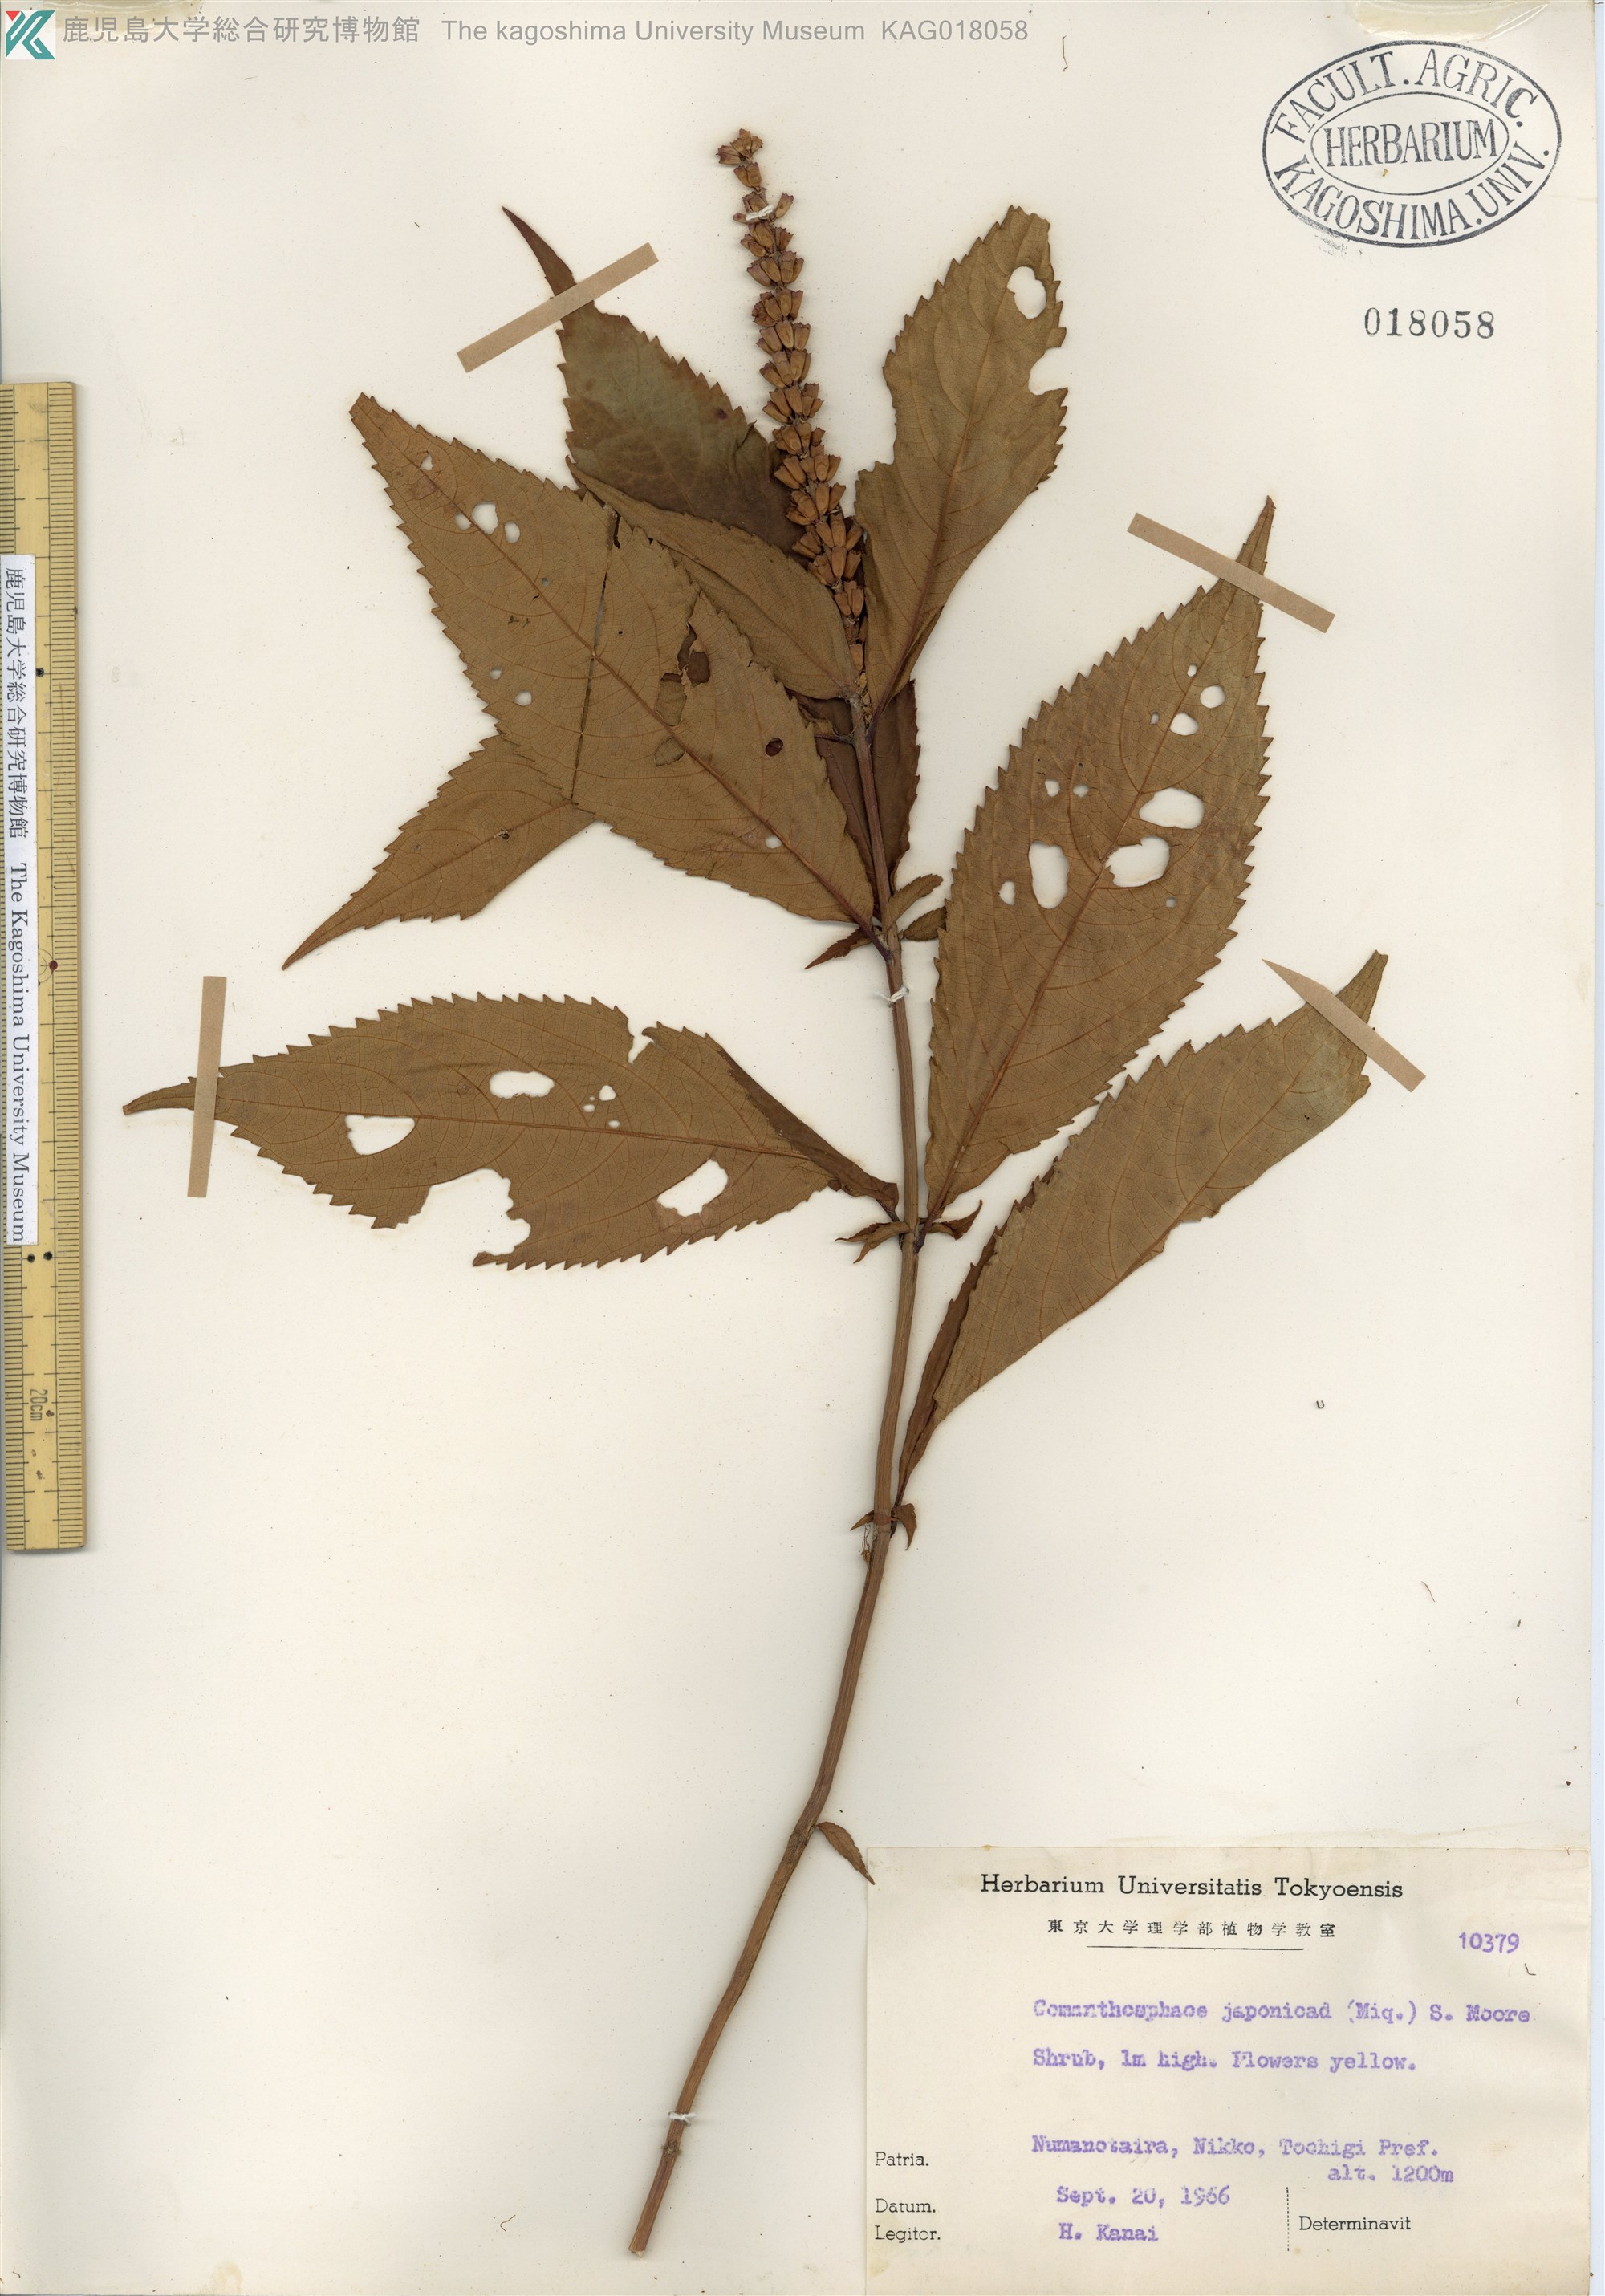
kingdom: Plantae
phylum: Tracheophyta
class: Magnoliopsida
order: Lamiales
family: Lamiaceae
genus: Comanthosphace
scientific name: Comanthosphace japonica
